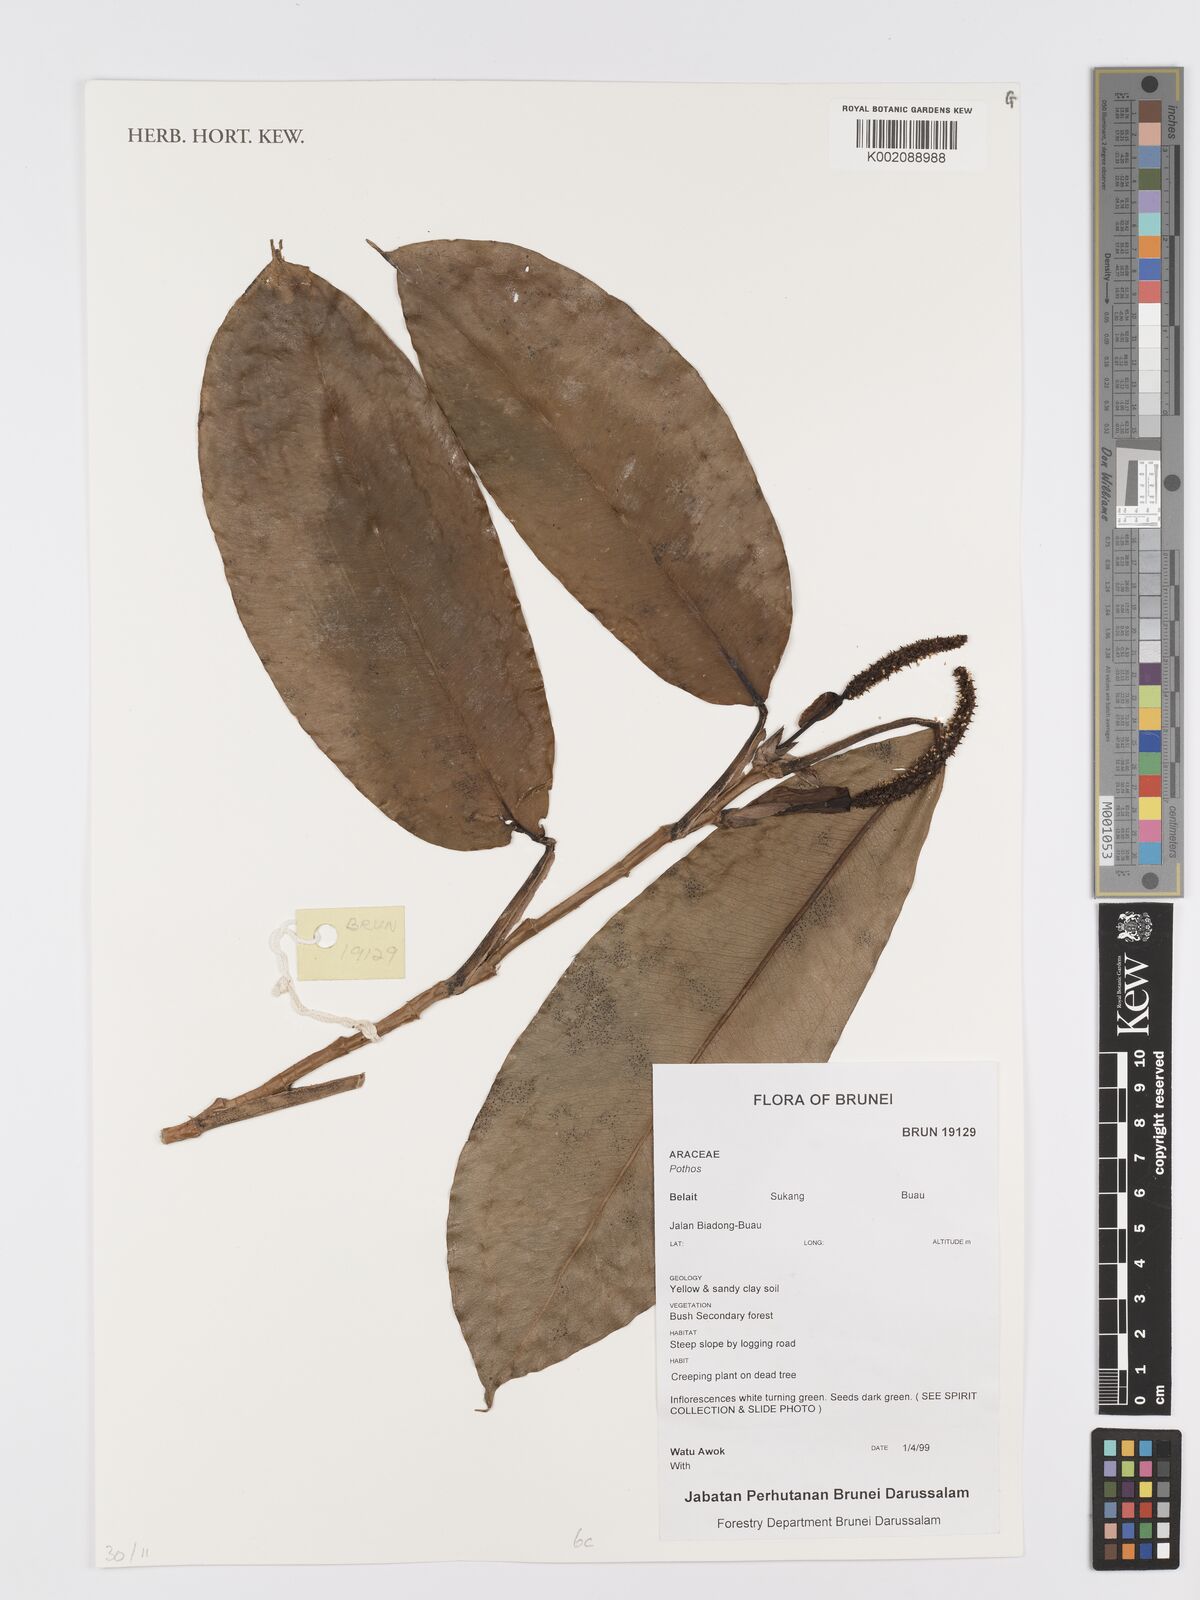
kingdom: Plantae
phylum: Tracheophyta
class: Liliopsida
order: Alismatales
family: Araceae
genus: Pothos
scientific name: Pothos
